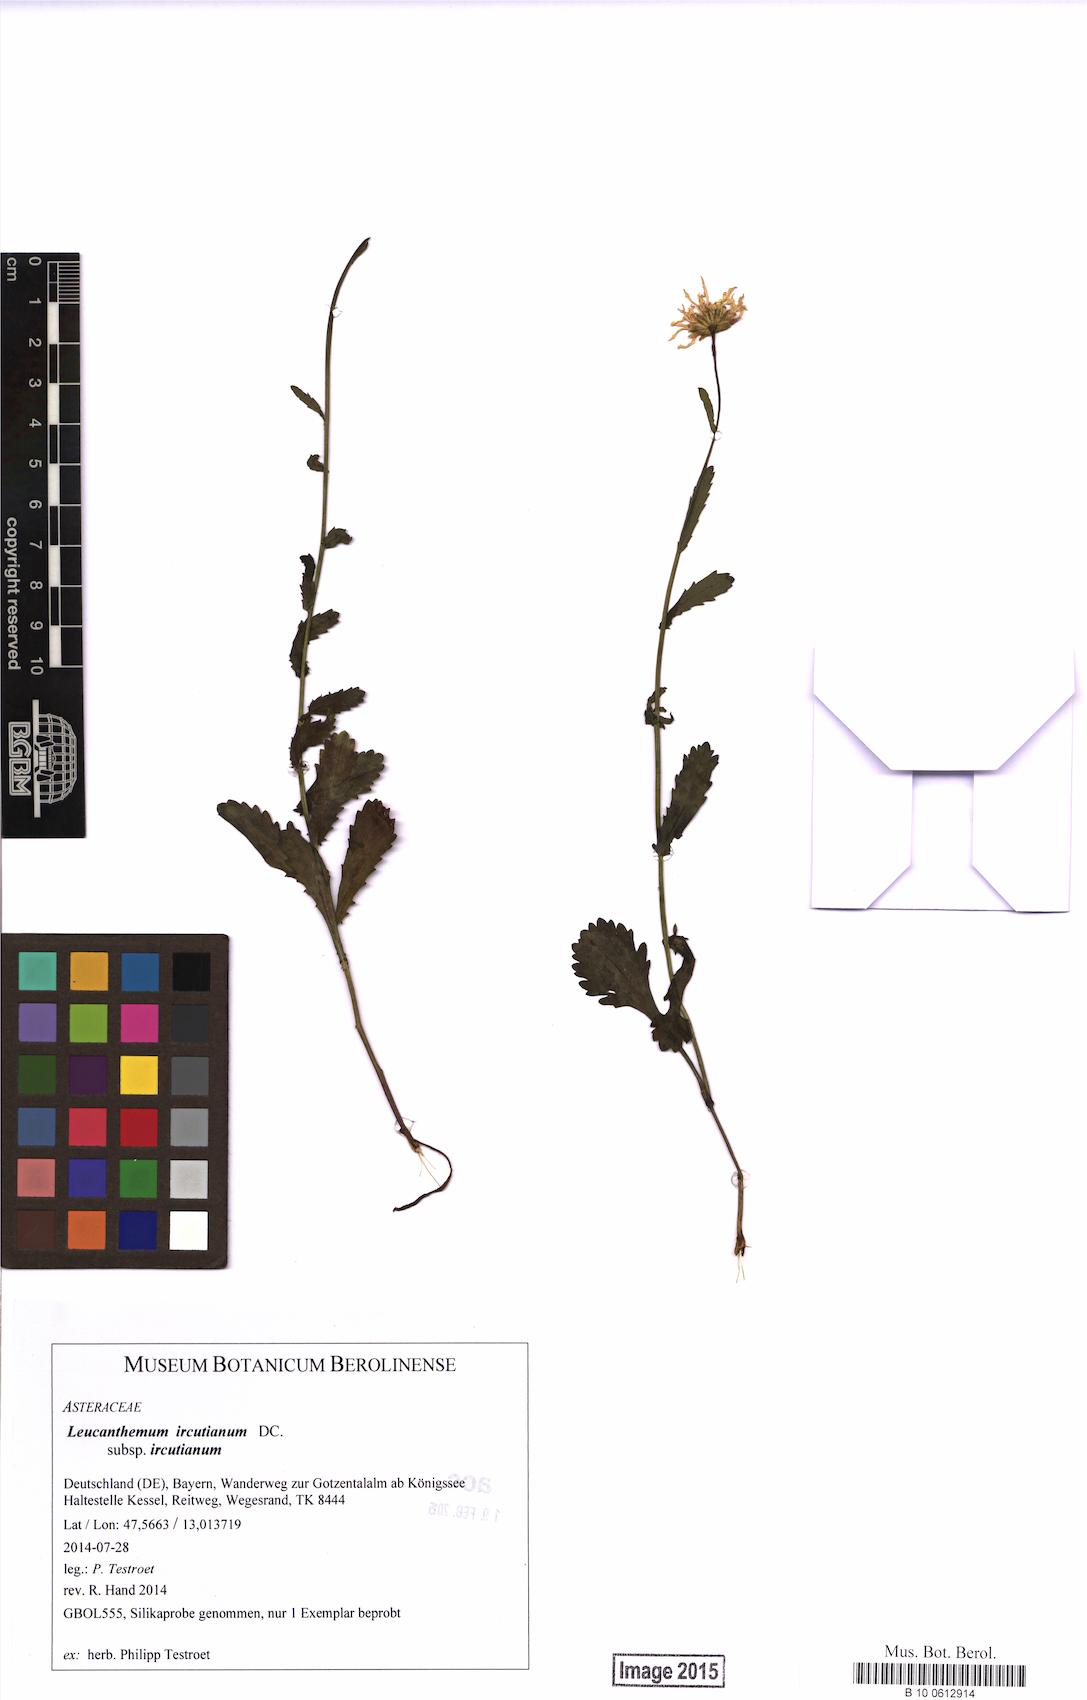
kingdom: Plantae
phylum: Tracheophyta
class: Magnoliopsida
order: Asterales
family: Asteraceae
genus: Leucanthemum
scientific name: Leucanthemum ircutianum
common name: Daisy
